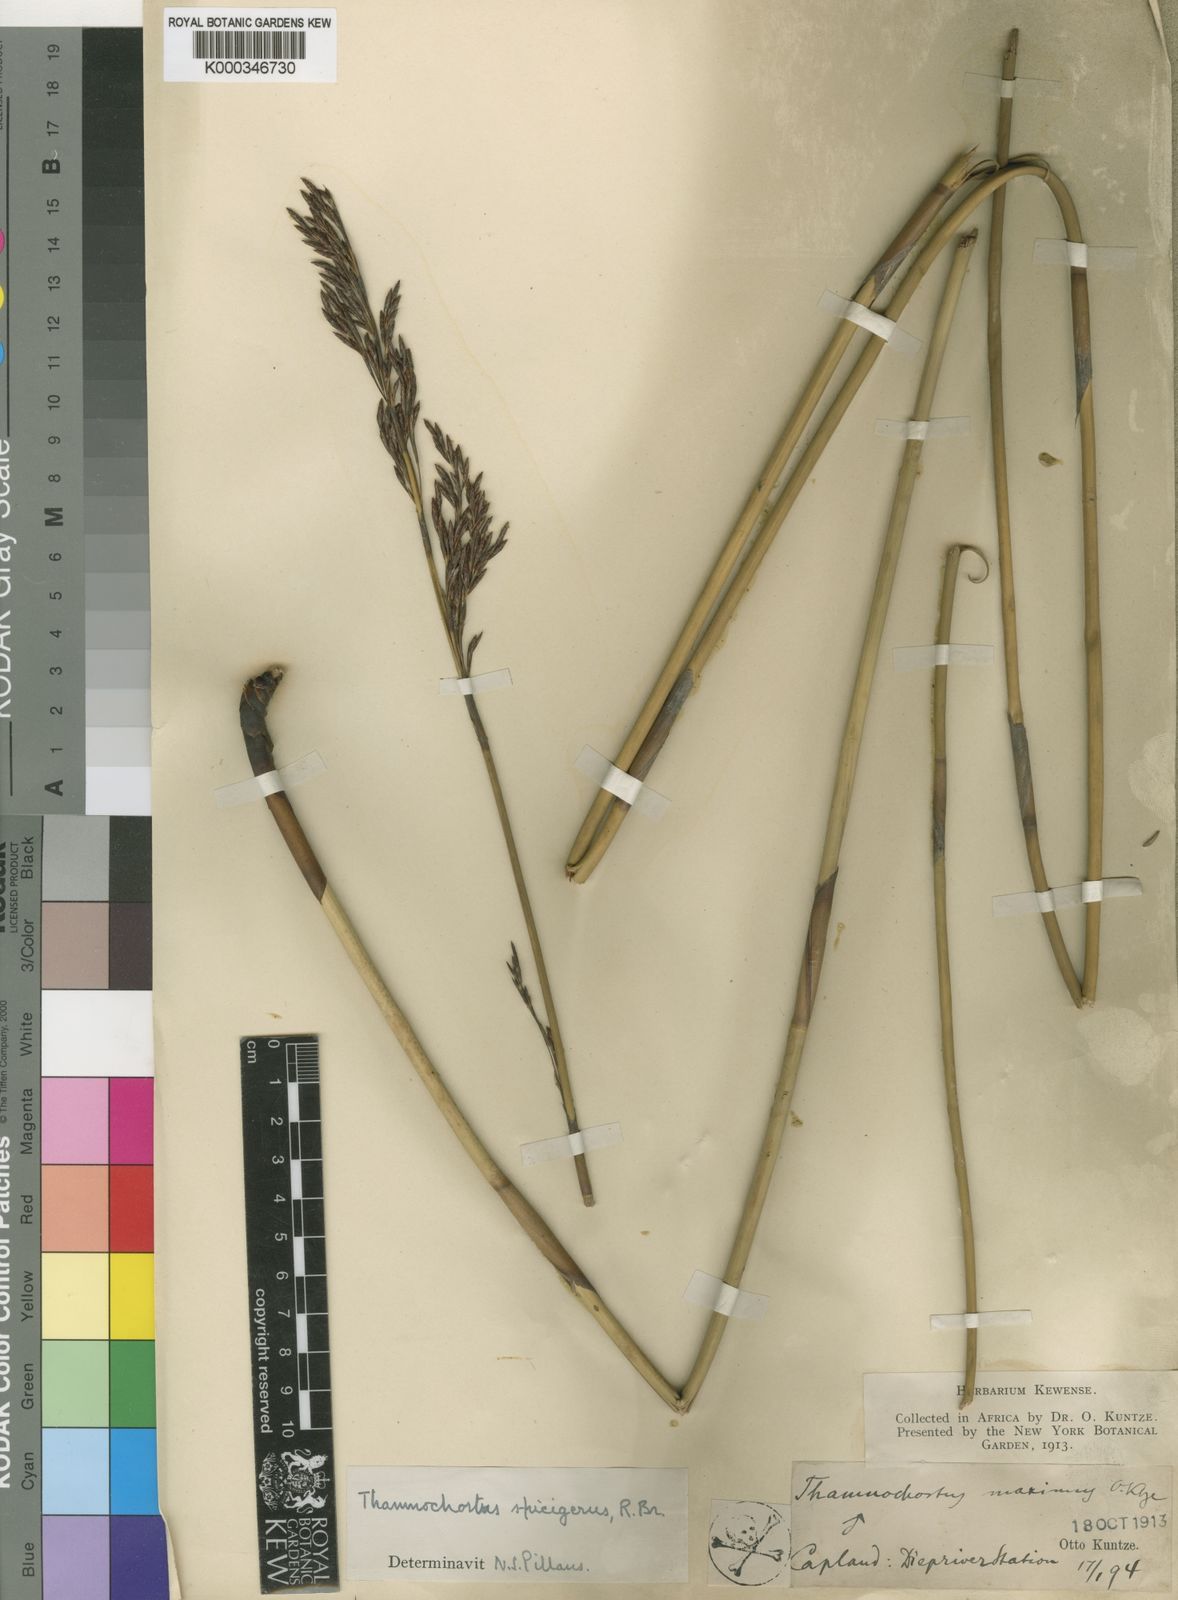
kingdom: Plantae
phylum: Tracheophyta
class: Liliopsida
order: Poales
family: Restionaceae
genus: Thamnochortus
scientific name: Thamnochortus
